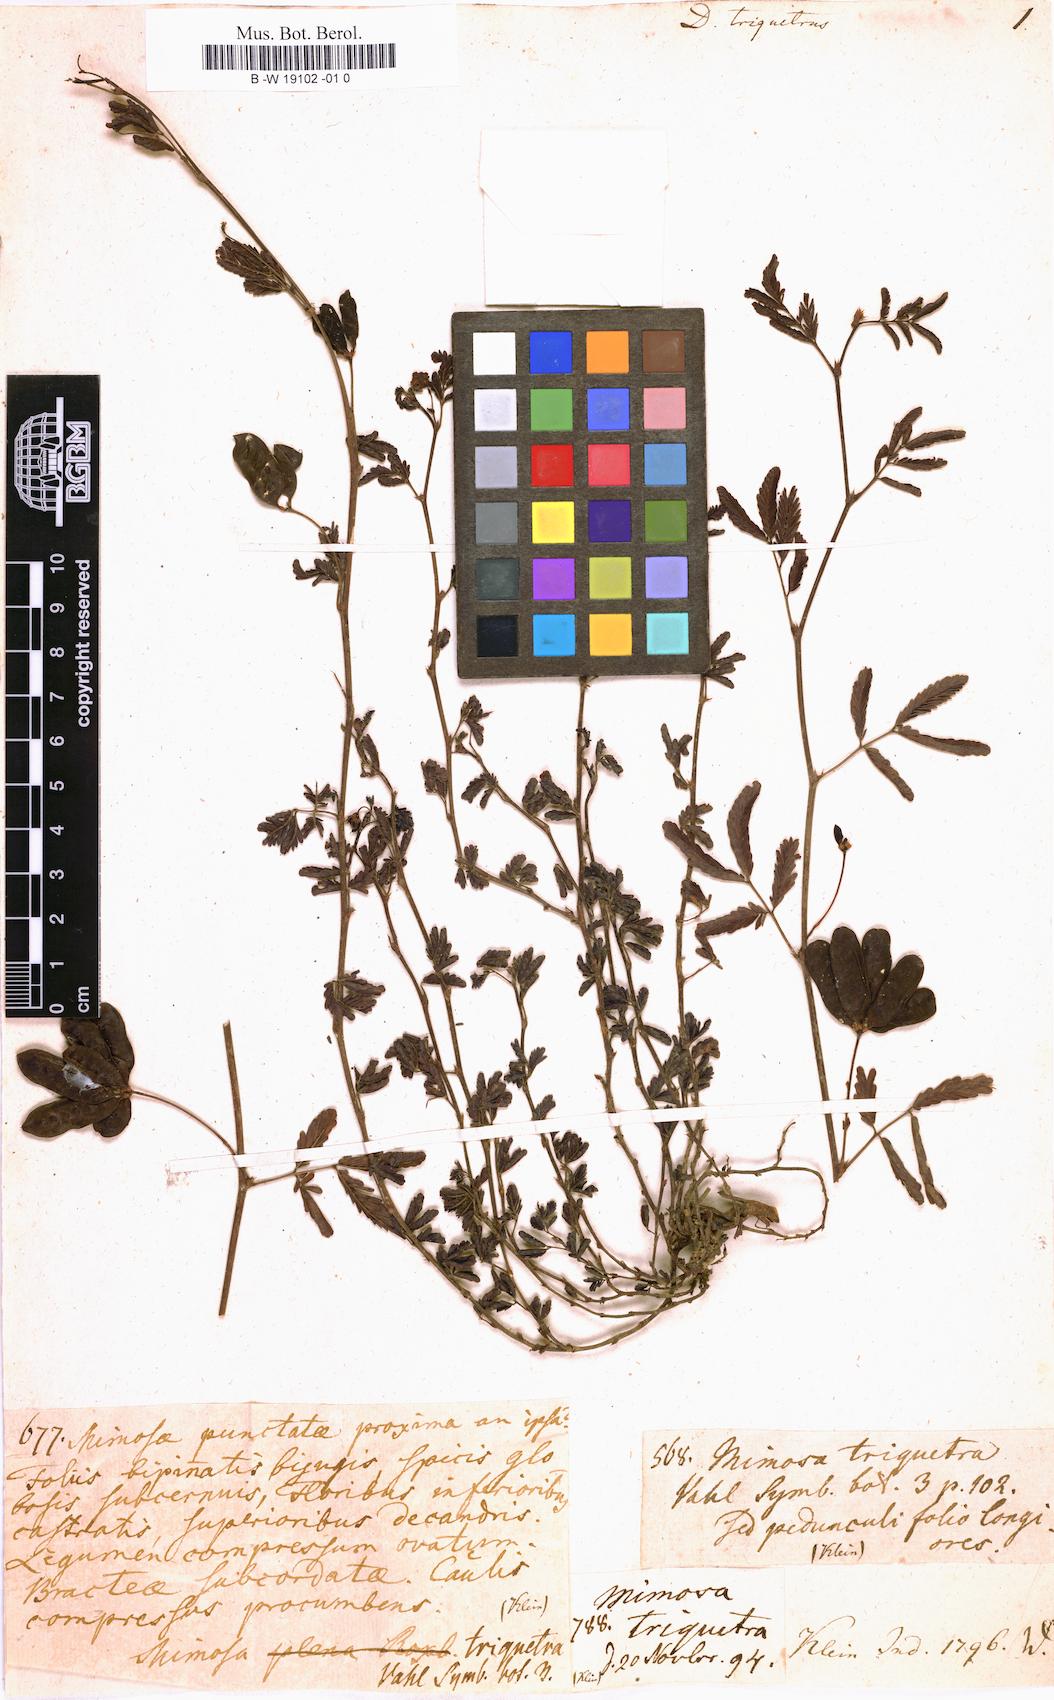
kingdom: Plantae
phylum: Tracheophyta
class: Magnoliopsida
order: Fabales
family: Fabaceae
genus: Neptunia
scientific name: Neptunia triquetra
